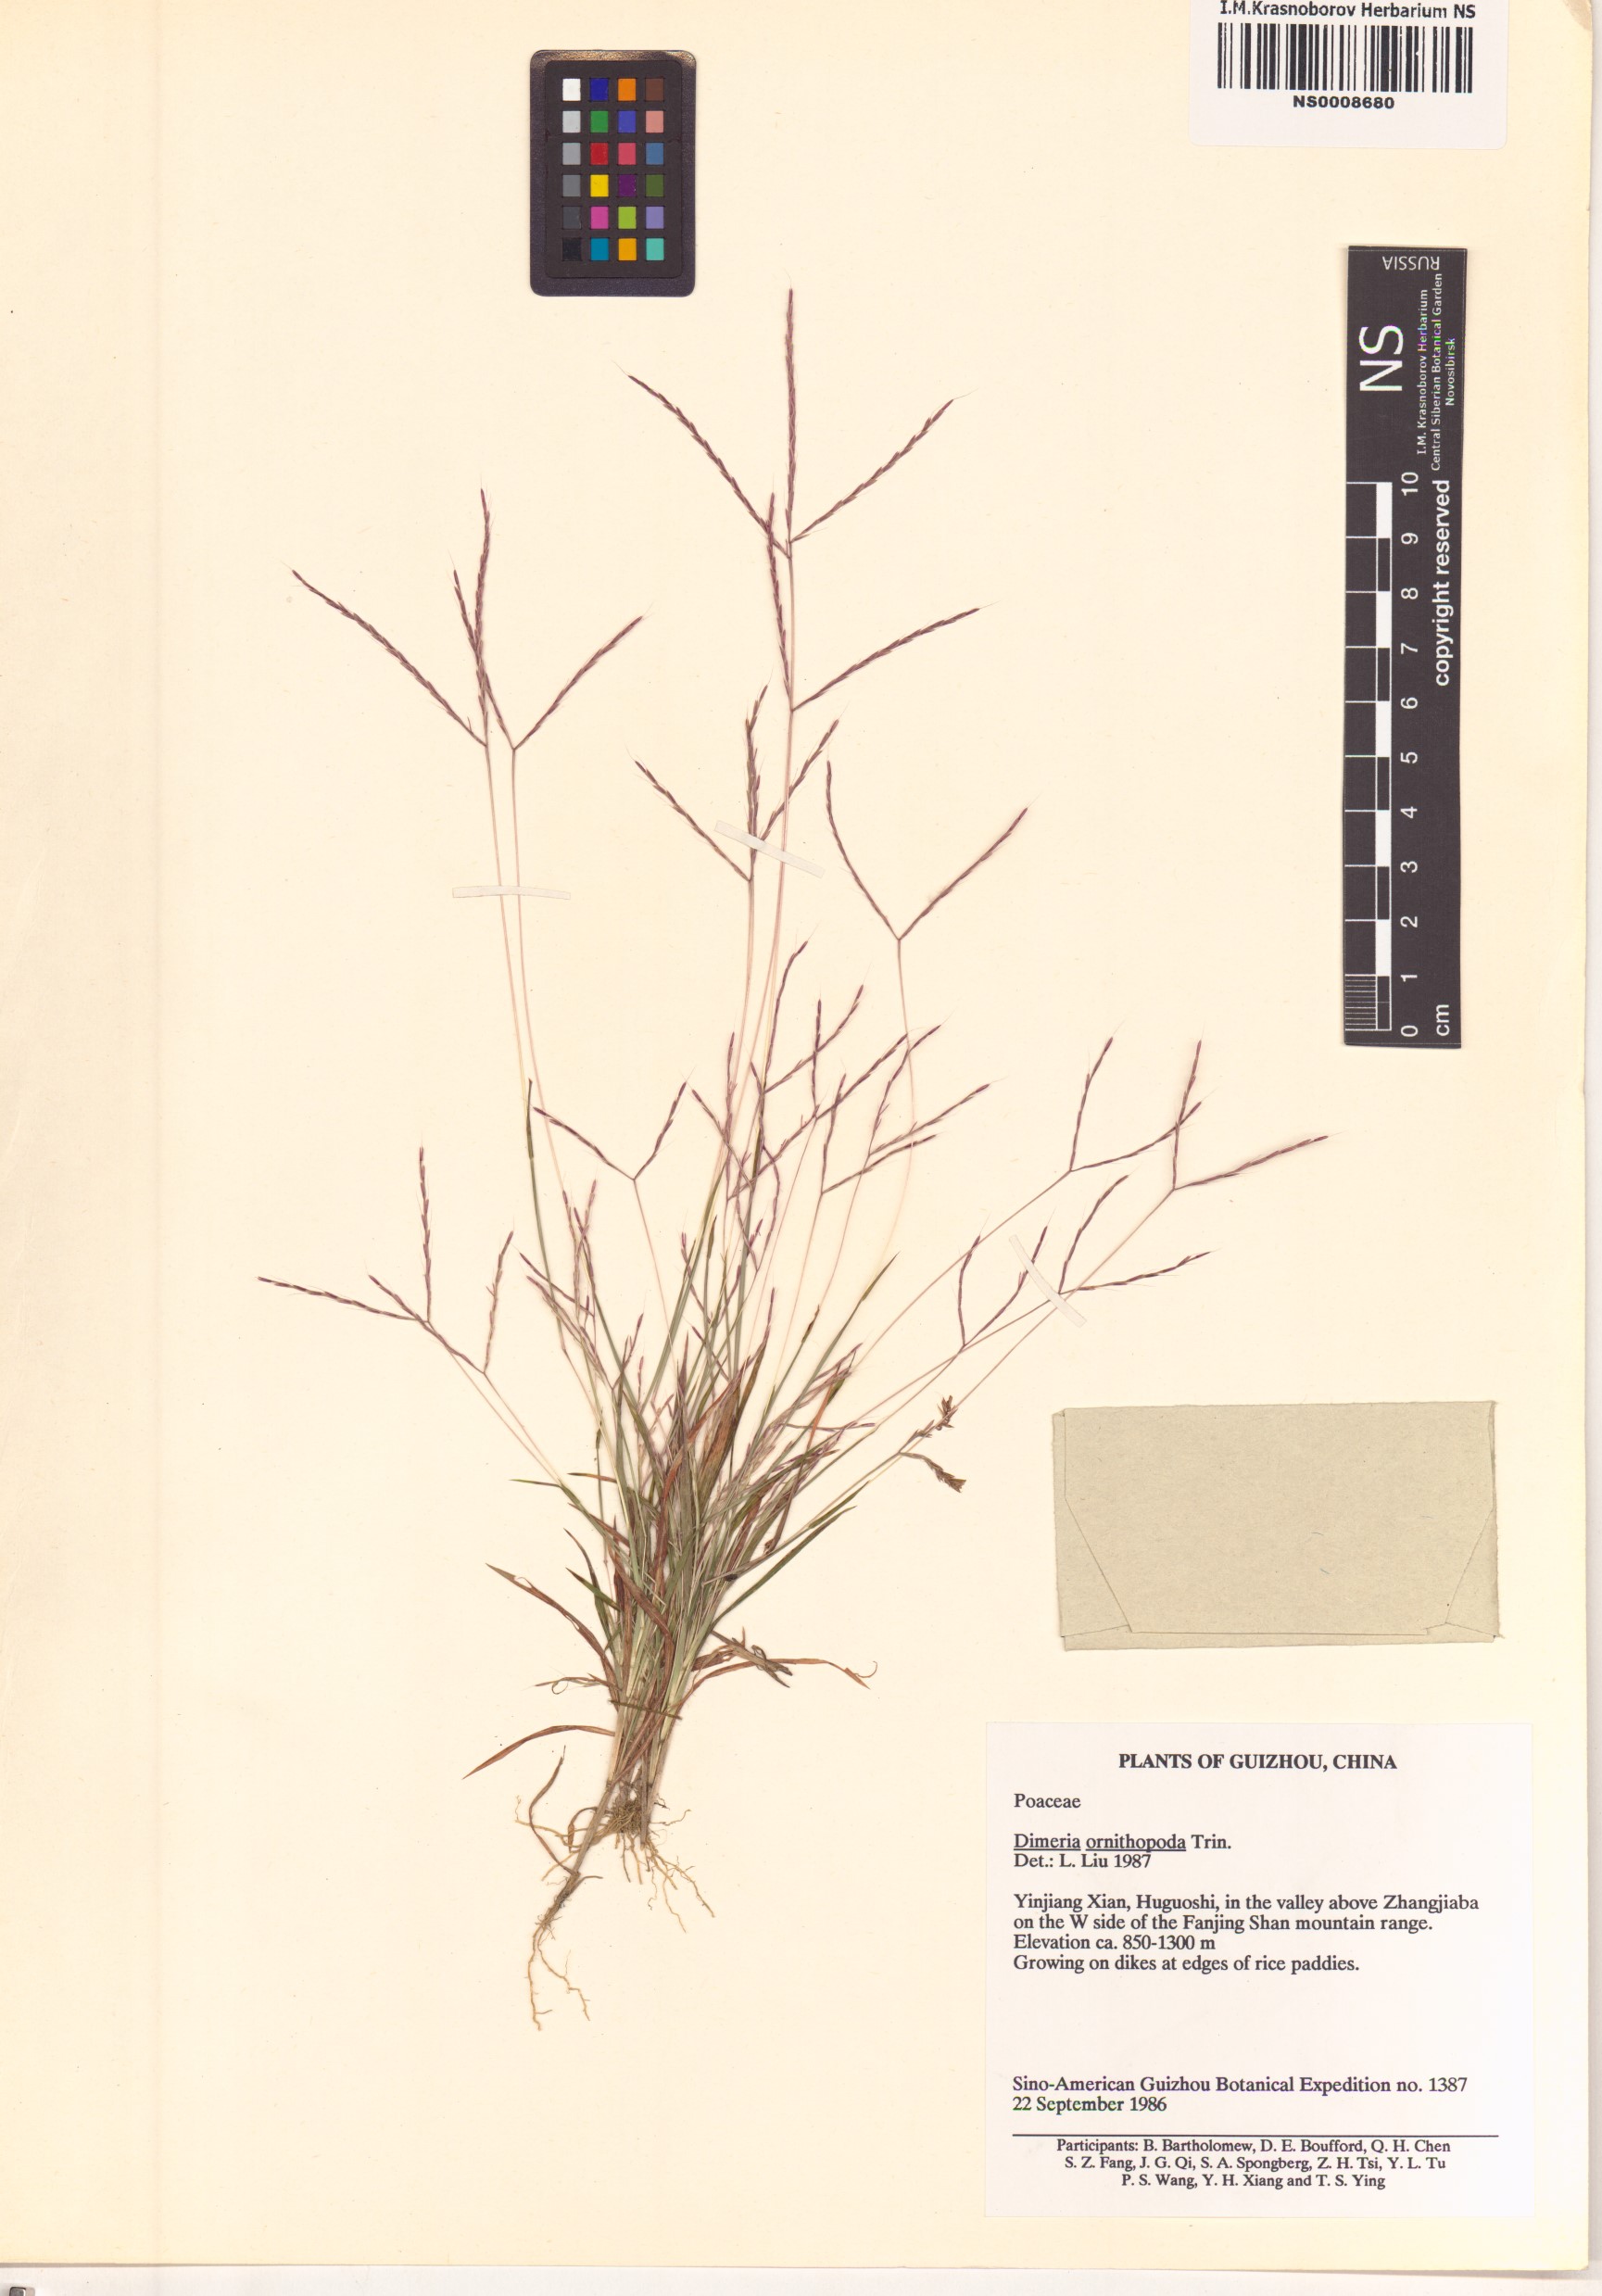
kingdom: Plantae
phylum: Tracheophyta
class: Liliopsida
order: Poales
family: Poaceae
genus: Dimeria
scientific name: Dimeria ornithopoda
